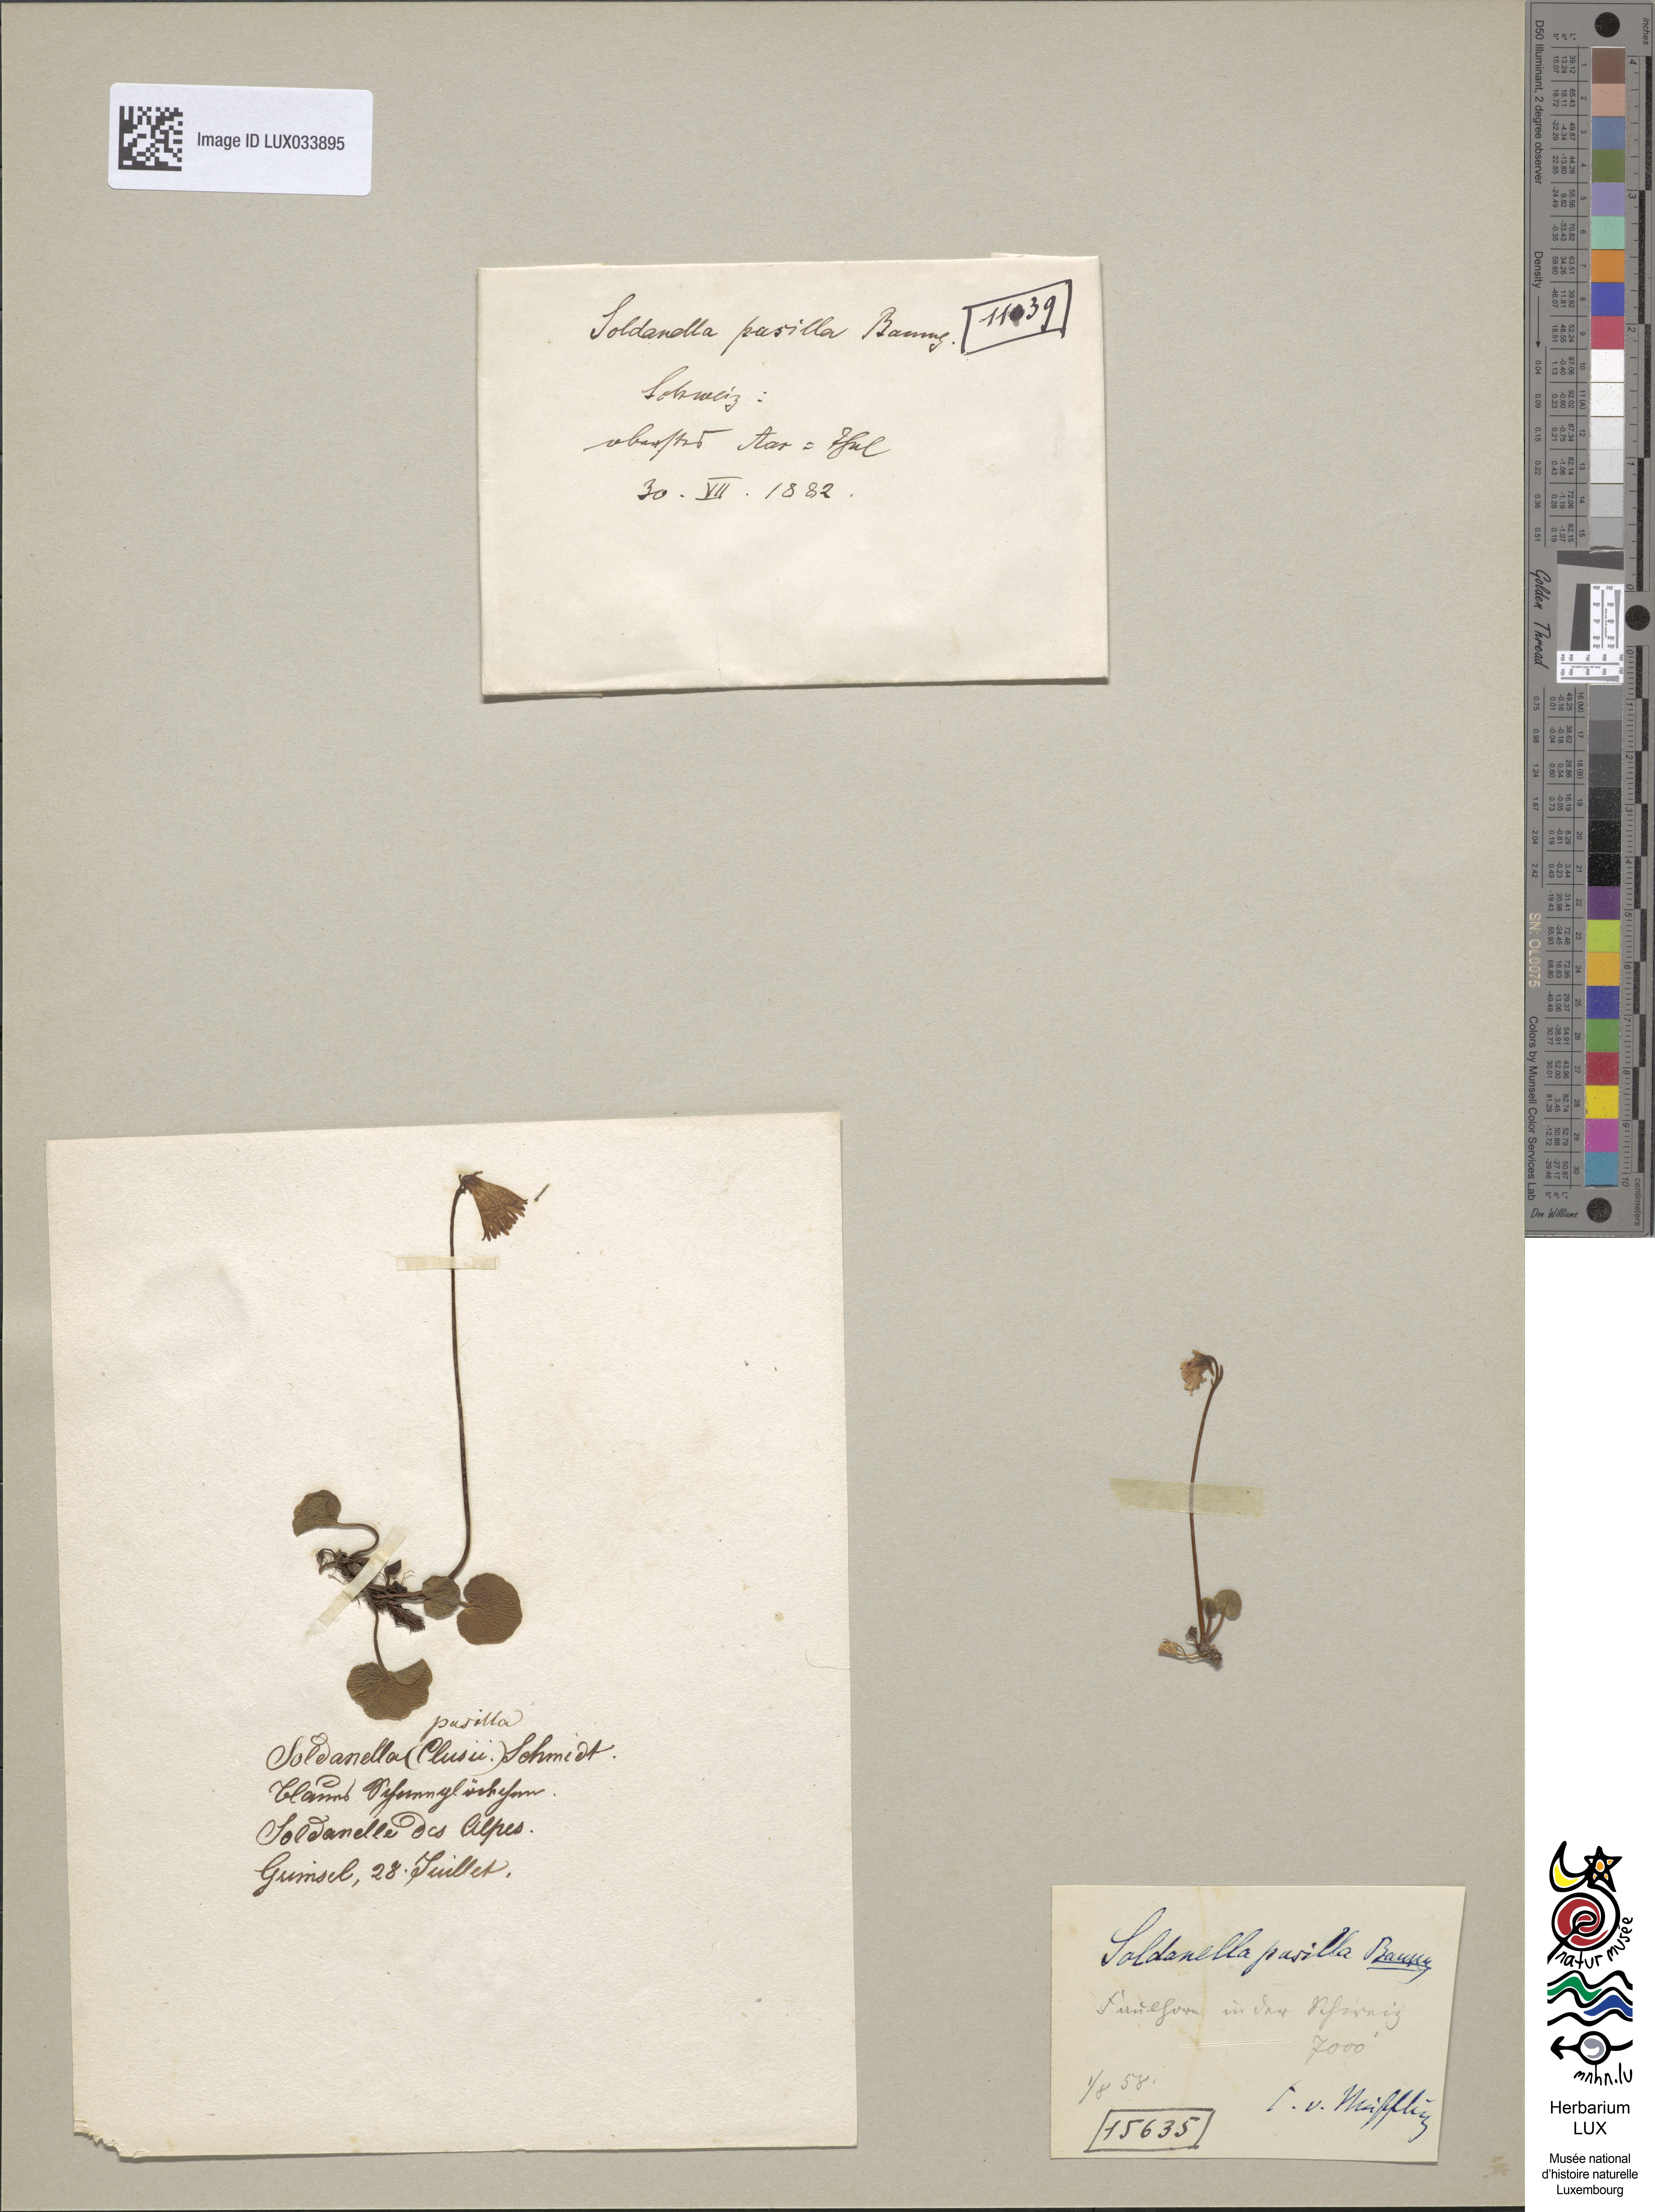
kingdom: Plantae
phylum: Tracheophyta
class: Magnoliopsida
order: Ericales
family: Primulaceae
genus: Soldanella
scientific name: Soldanella pusilla
